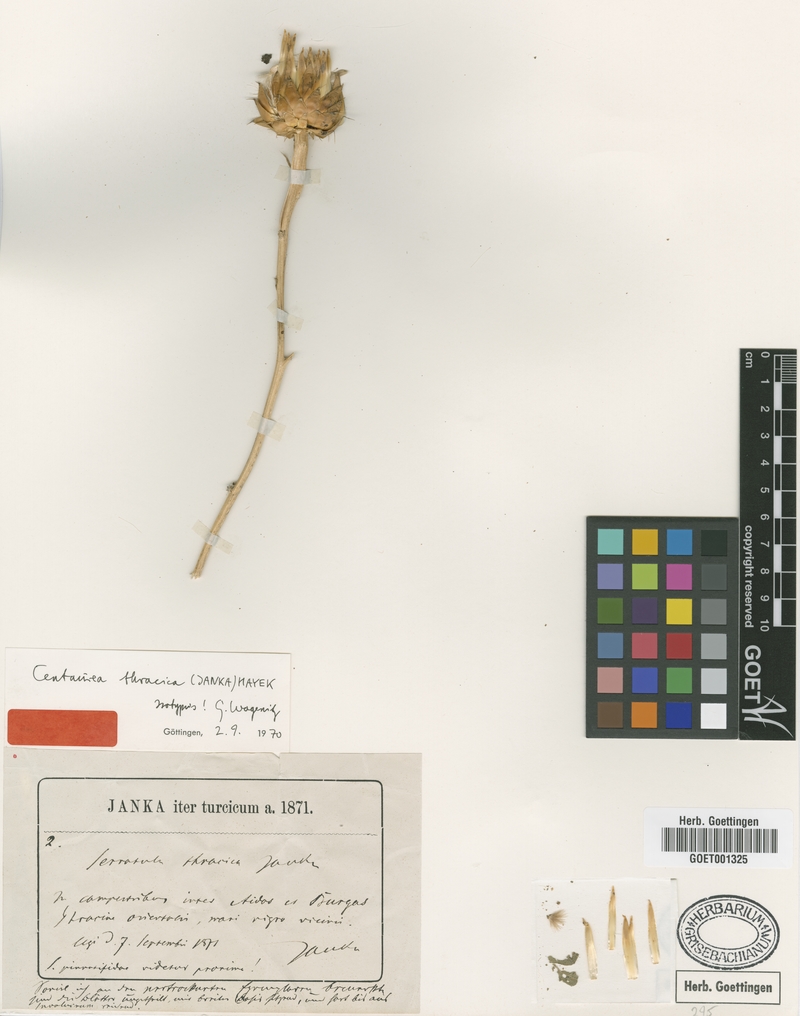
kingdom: Plantae
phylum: Tracheophyta
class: Magnoliopsida
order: Asterales
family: Asteraceae
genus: Centaurea
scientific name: Centaurea thracica
